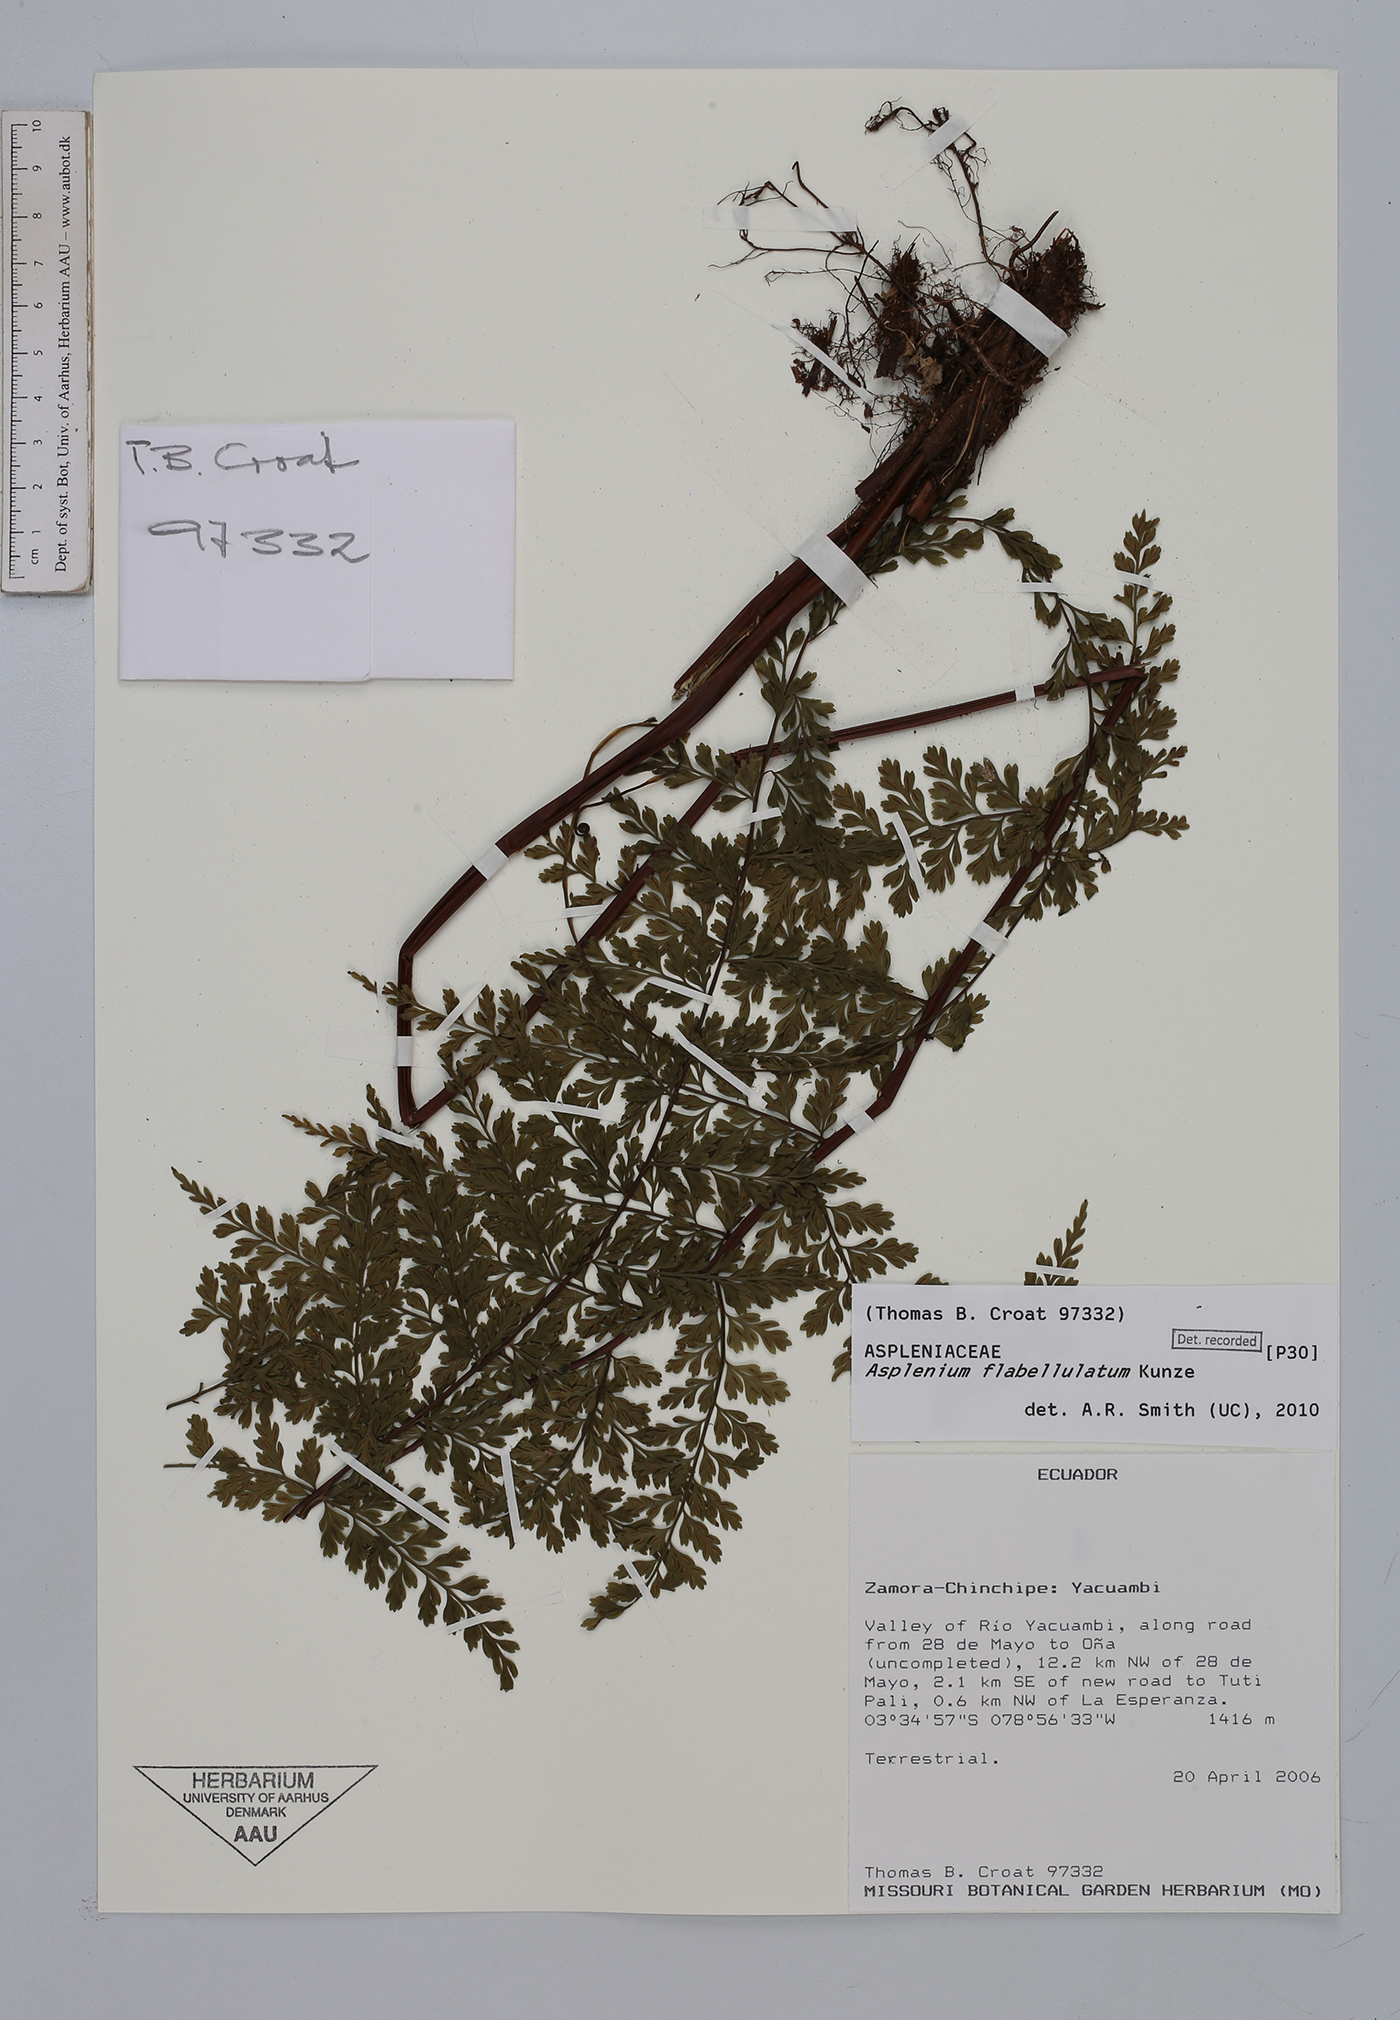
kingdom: Plantae
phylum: Tracheophyta
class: Polypodiopsida
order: Polypodiales
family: Aspleniaceae
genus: Asplenium
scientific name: Asplenium flabellulatum
